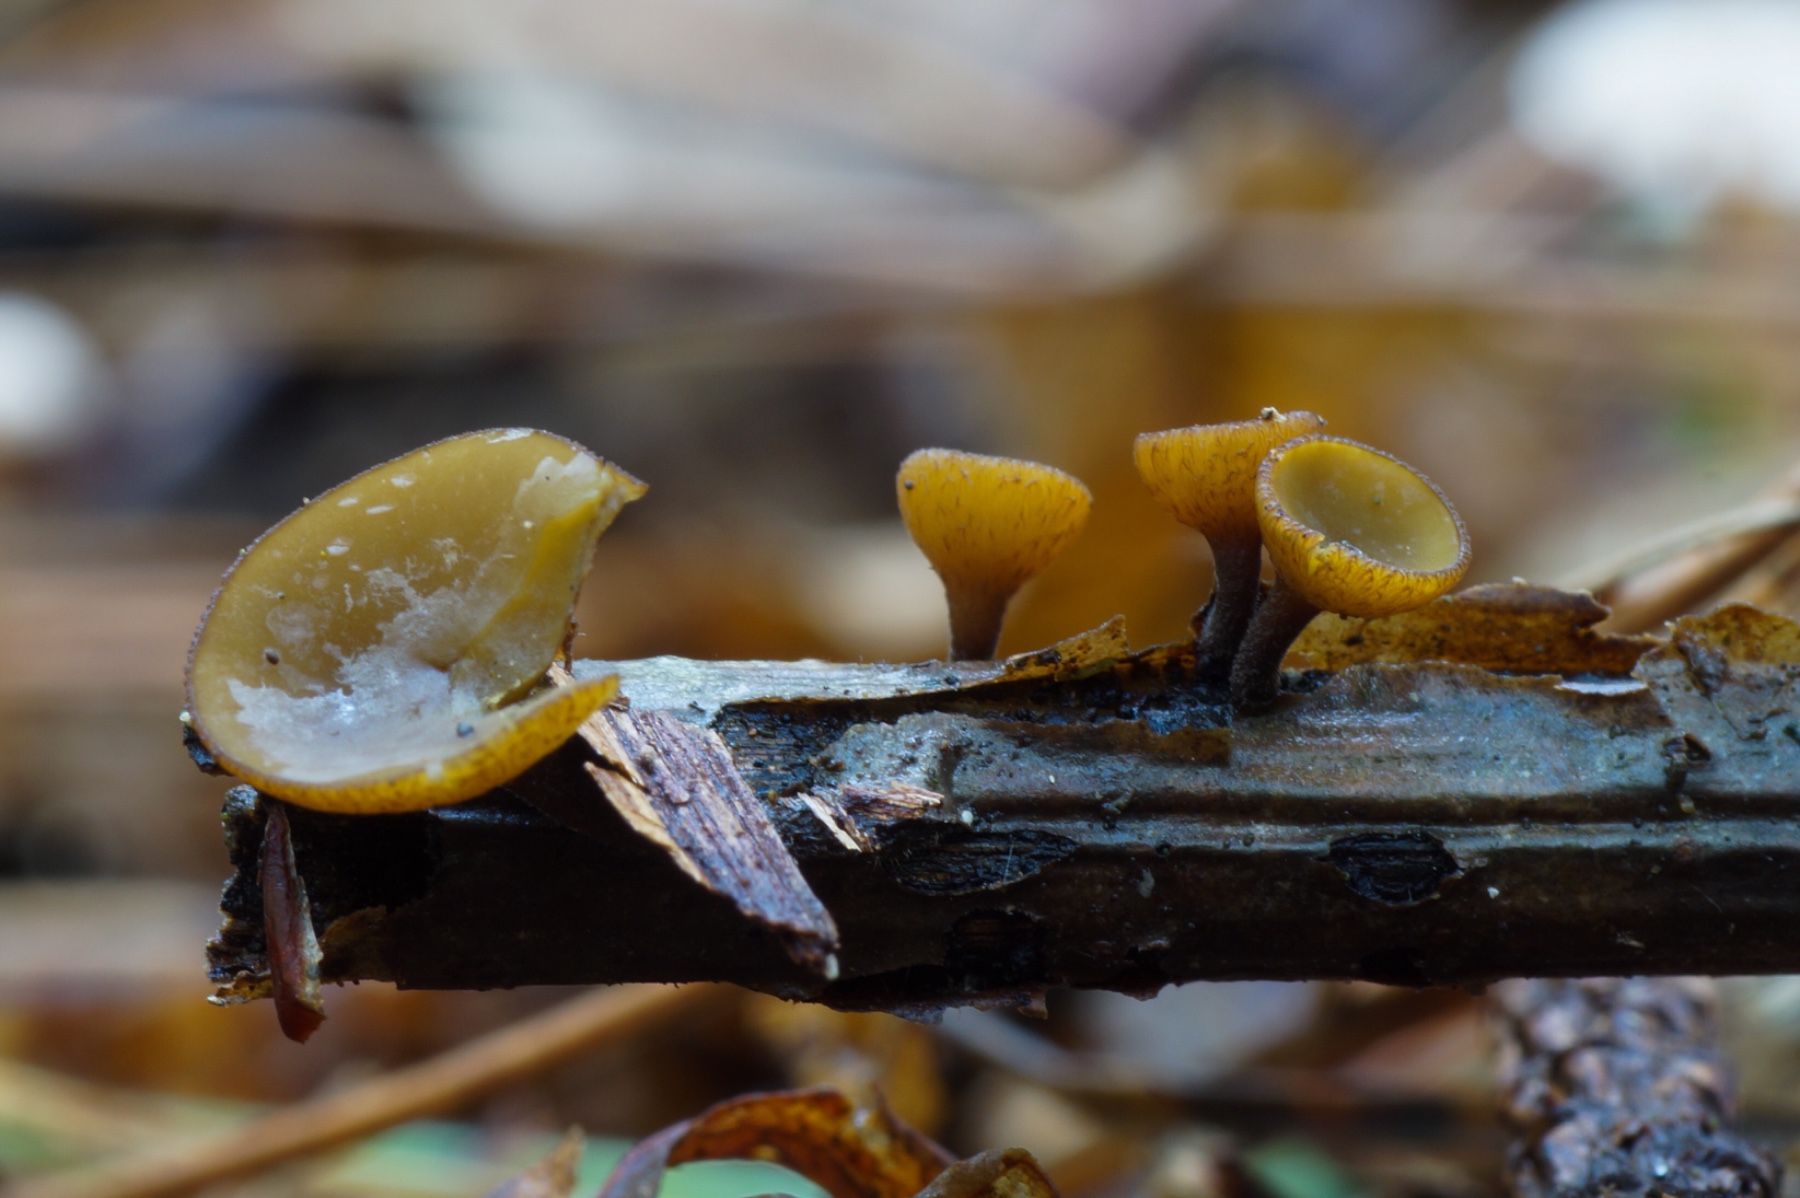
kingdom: Fungi
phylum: Ascomycota
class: Leotiomycetes
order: Helotiales
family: Rutstroemiaceae
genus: Rutstroemia
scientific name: Rutstroemia firma
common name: gren-brunskive
